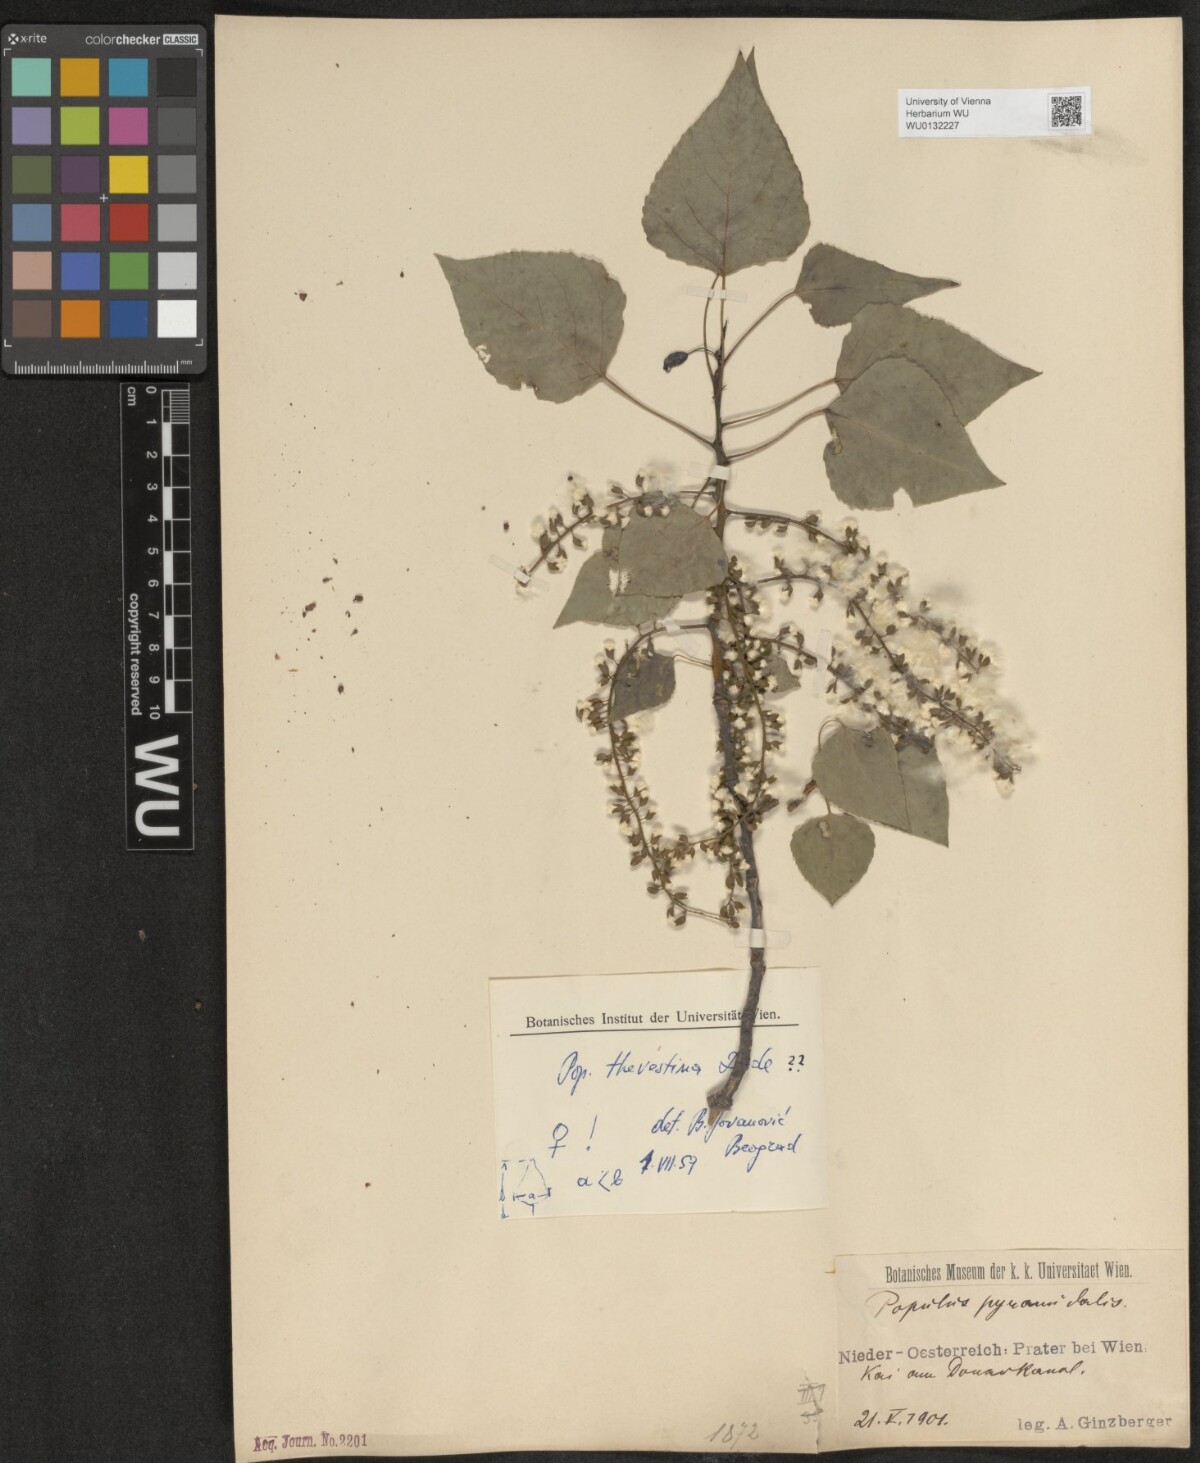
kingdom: Plantae
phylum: Tracheophyta
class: Magnoliopsida
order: Malpighiales
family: Salicaceae
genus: Populus
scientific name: Populus nigra
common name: Black poplar
